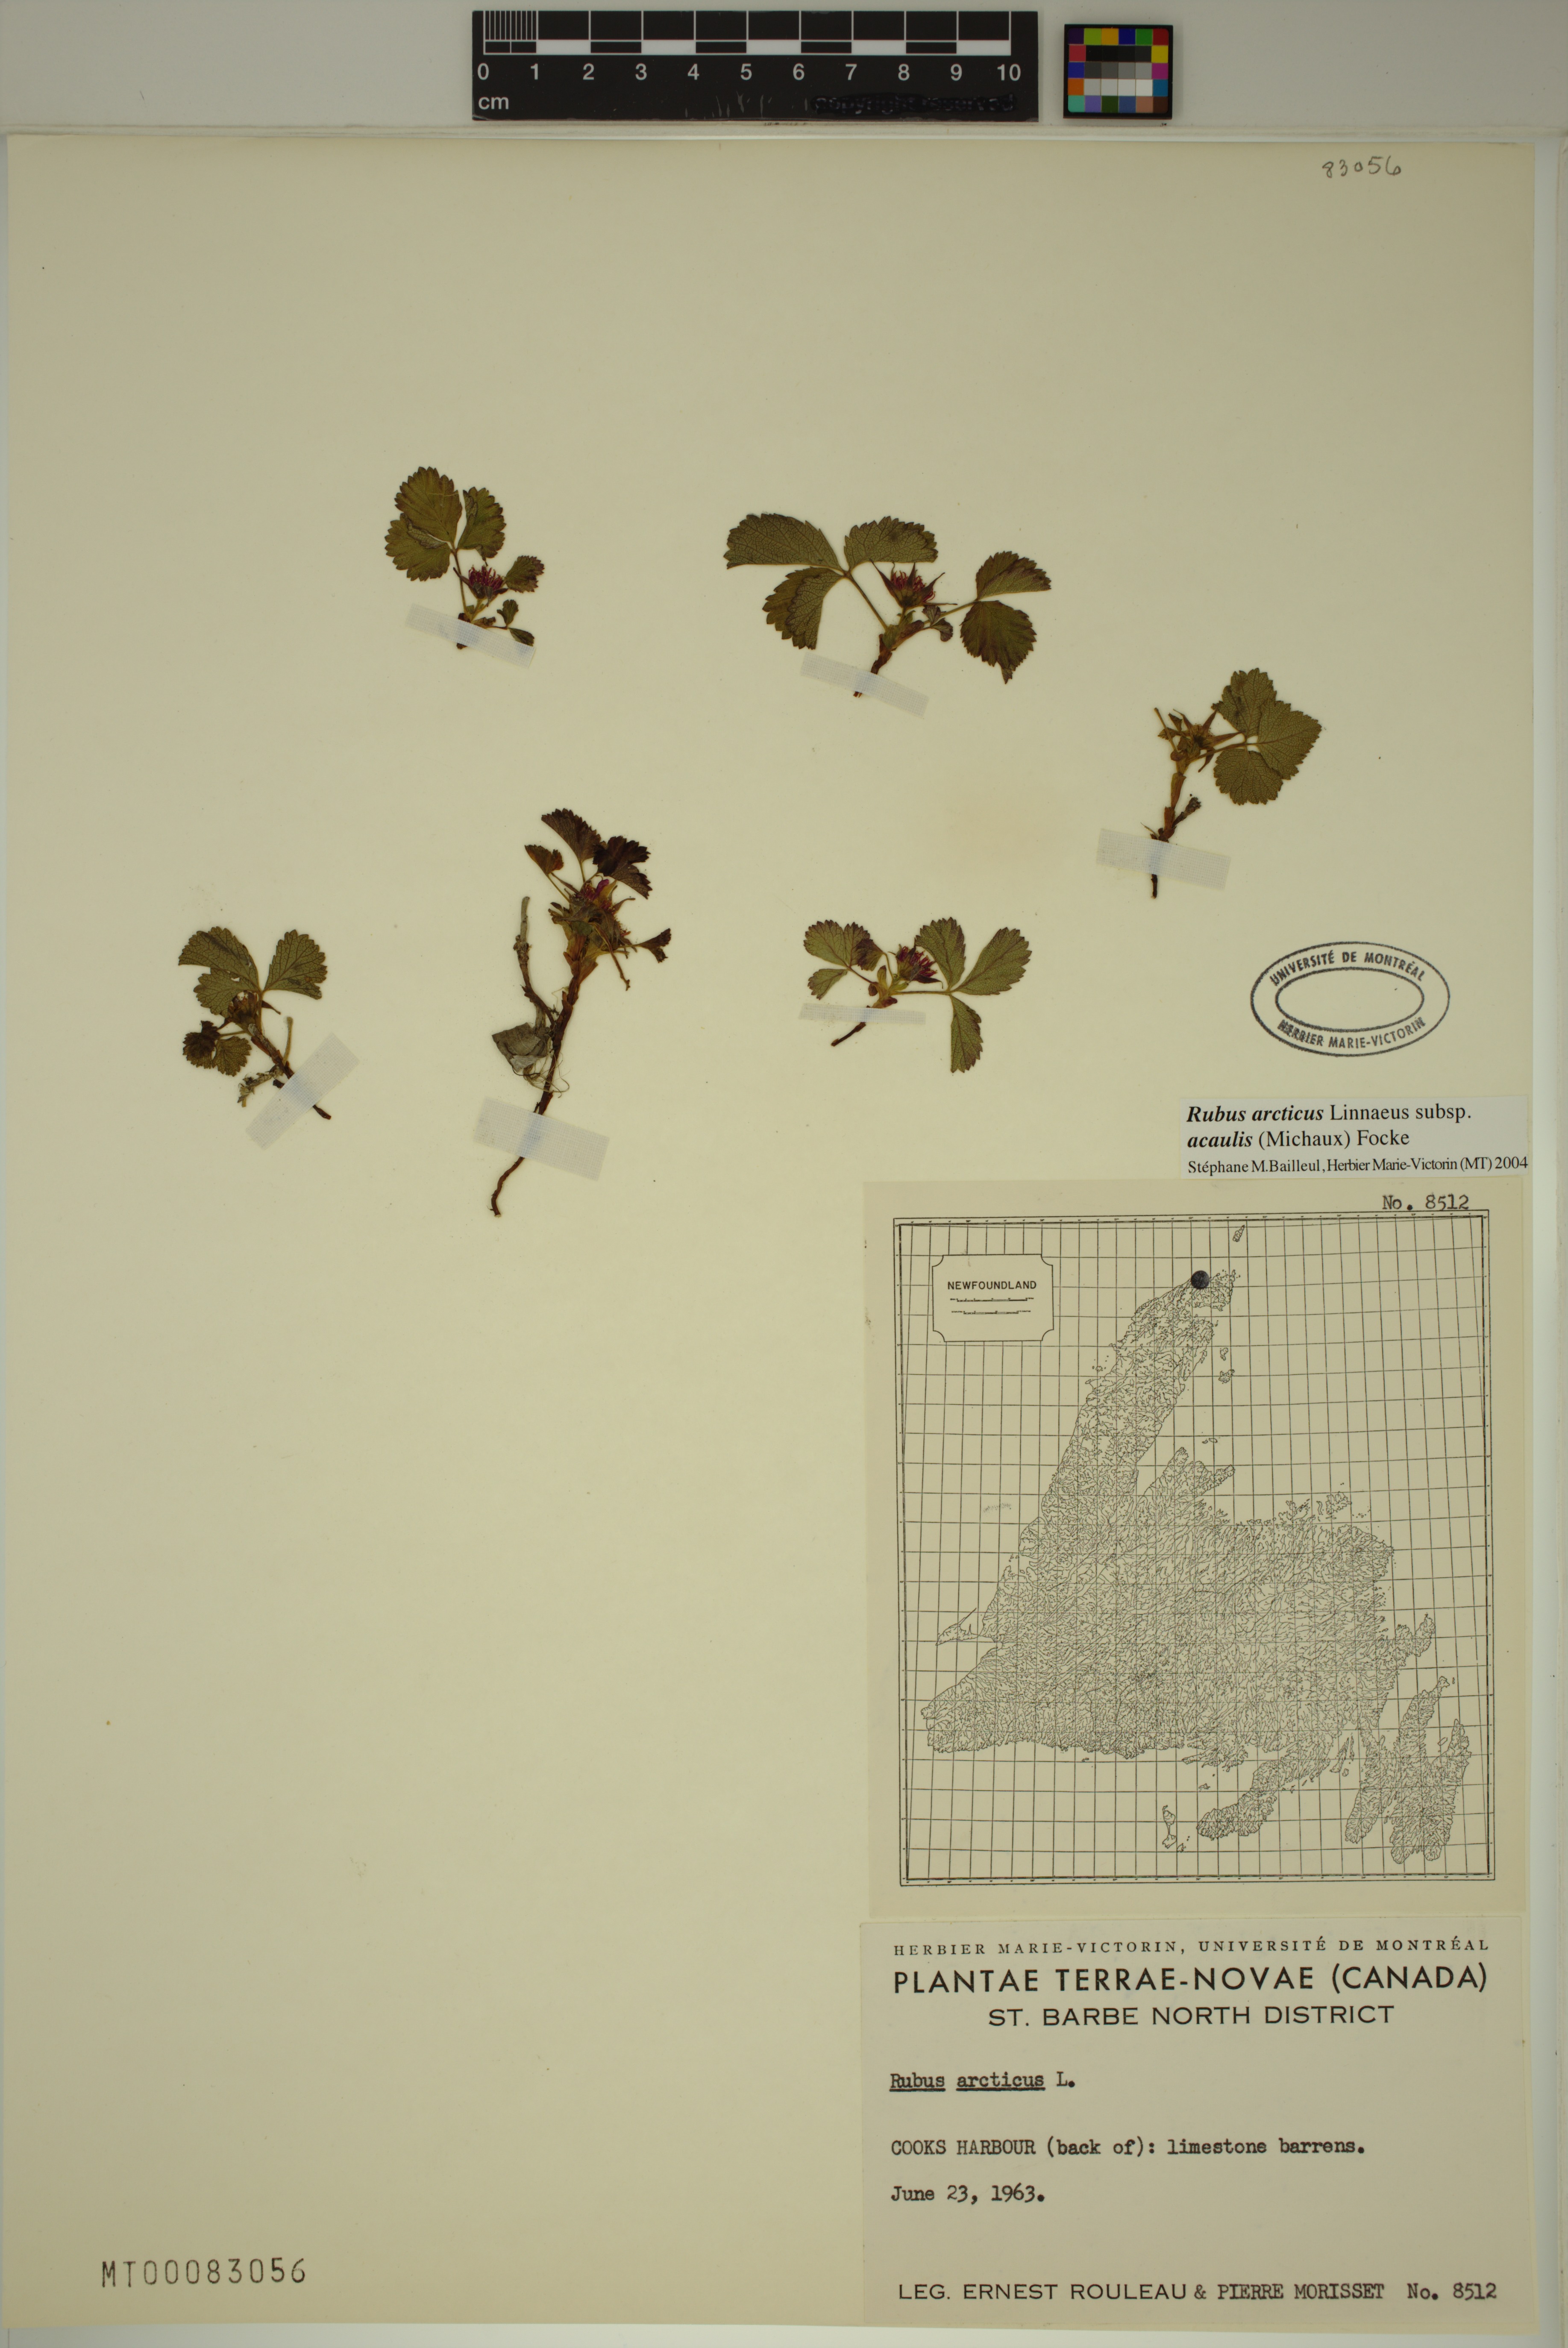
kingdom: Plantae
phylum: Tracheophyta
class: Magnoliopsida
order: Rosales
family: Rosaceae
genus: Rubus
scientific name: Rubus arcticus
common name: Arctic bramble
